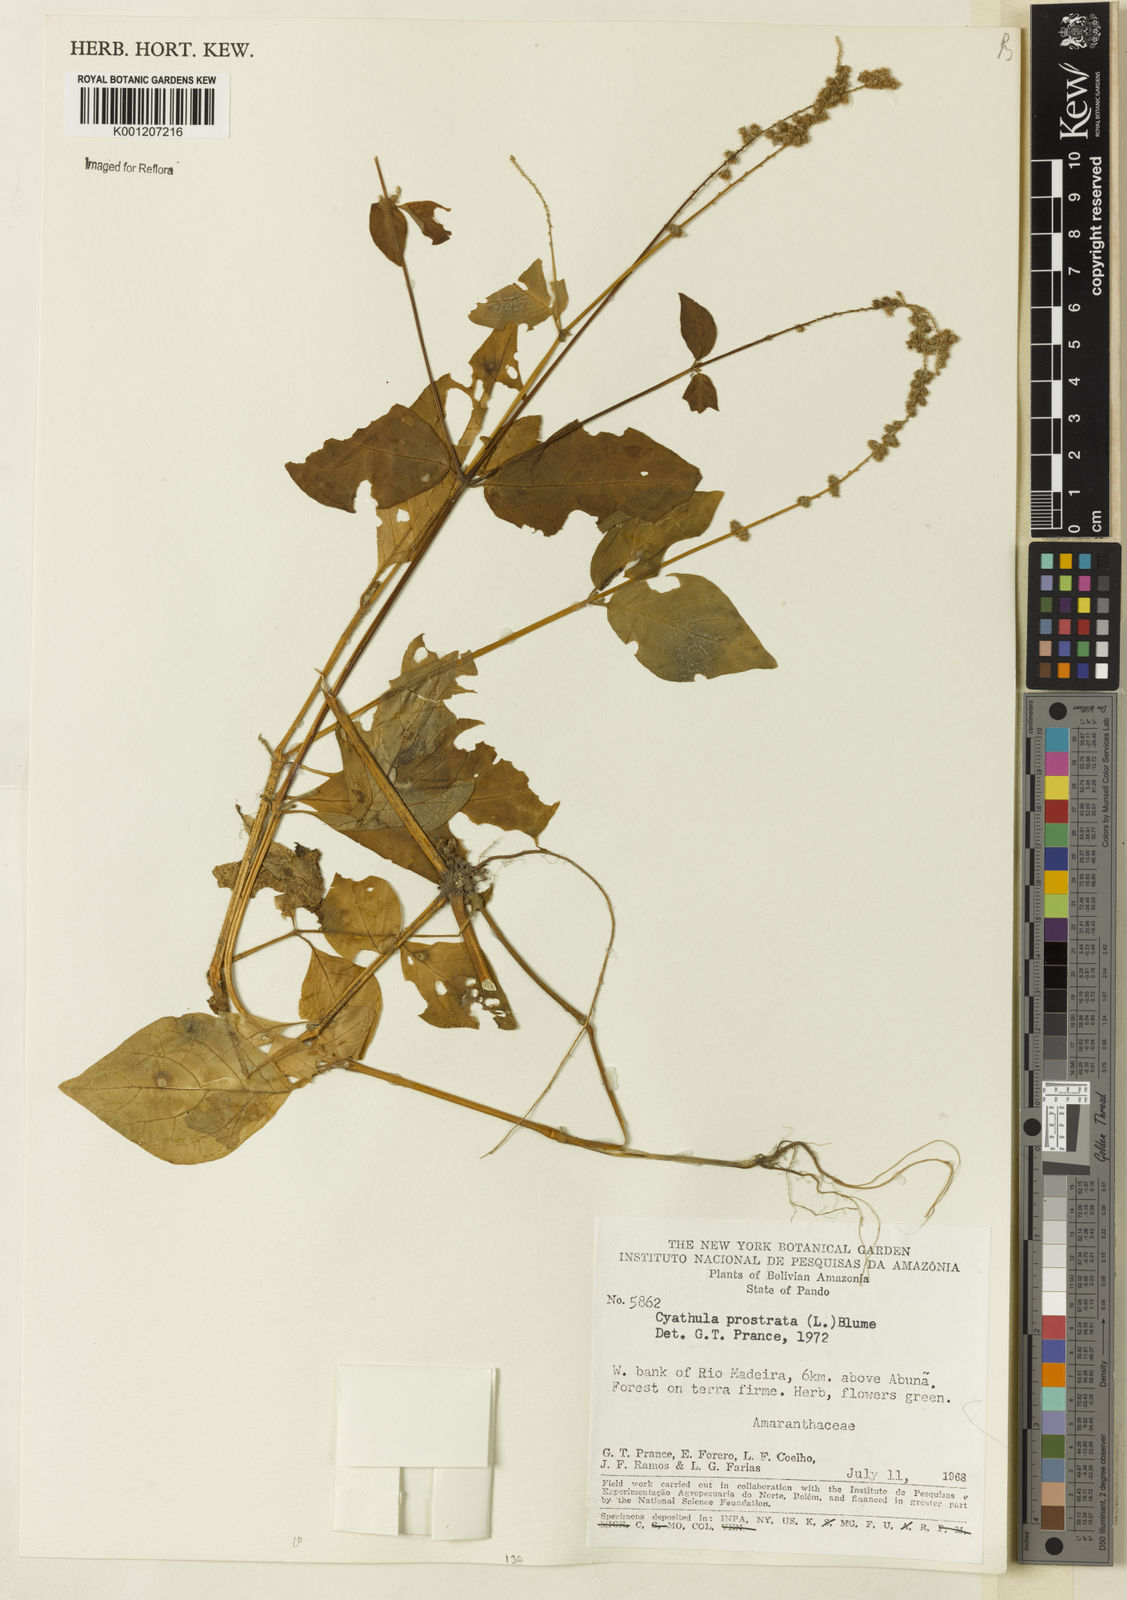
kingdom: Plantae
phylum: Tracheophyta
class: Magnoliopsida
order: Caryophyllales
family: Amaranthaceae
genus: Cyathula
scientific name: Cyathula prostrata
